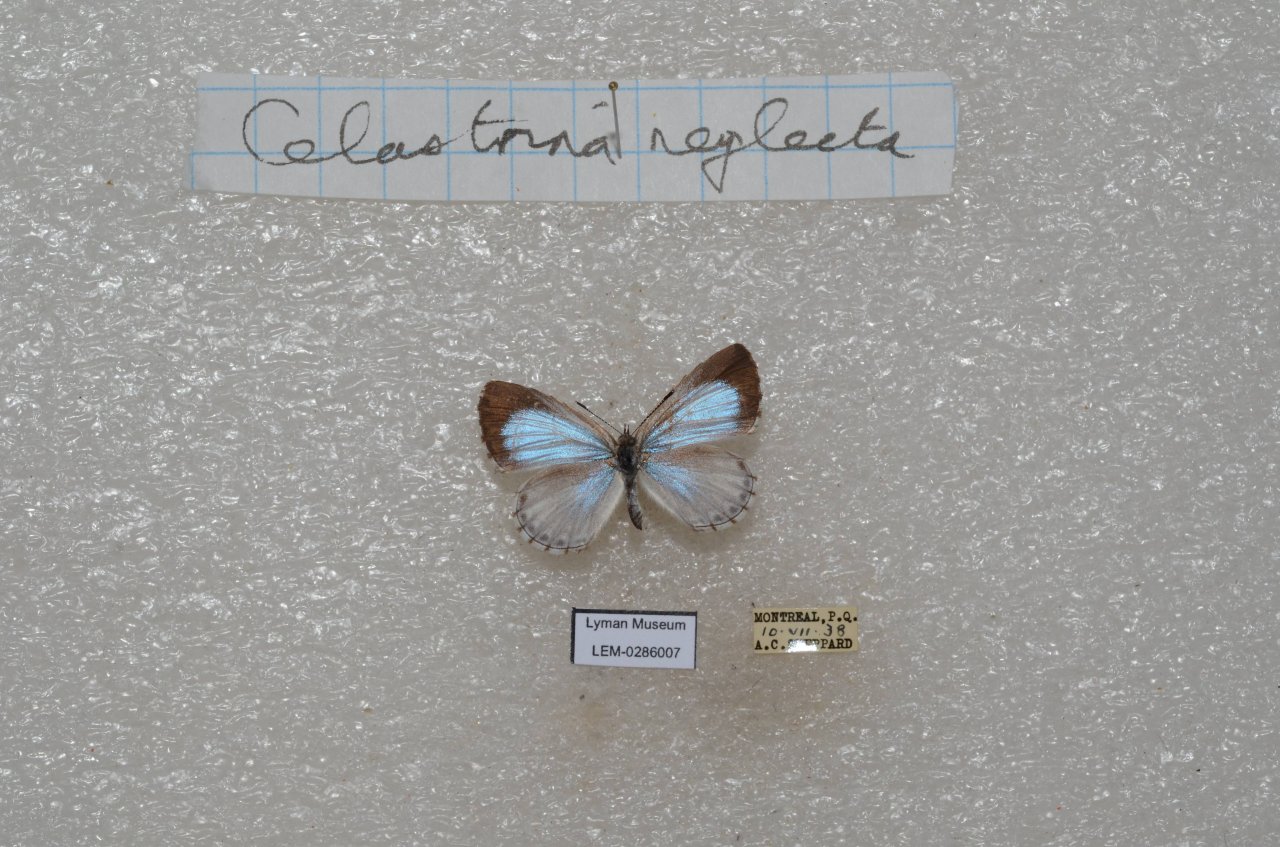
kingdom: Animalia
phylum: Arthropoda
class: Insecta
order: Lepidoptera
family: Lycaenidae
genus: Cyaniris
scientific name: Cyaniris neglecta
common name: Summer Azure
